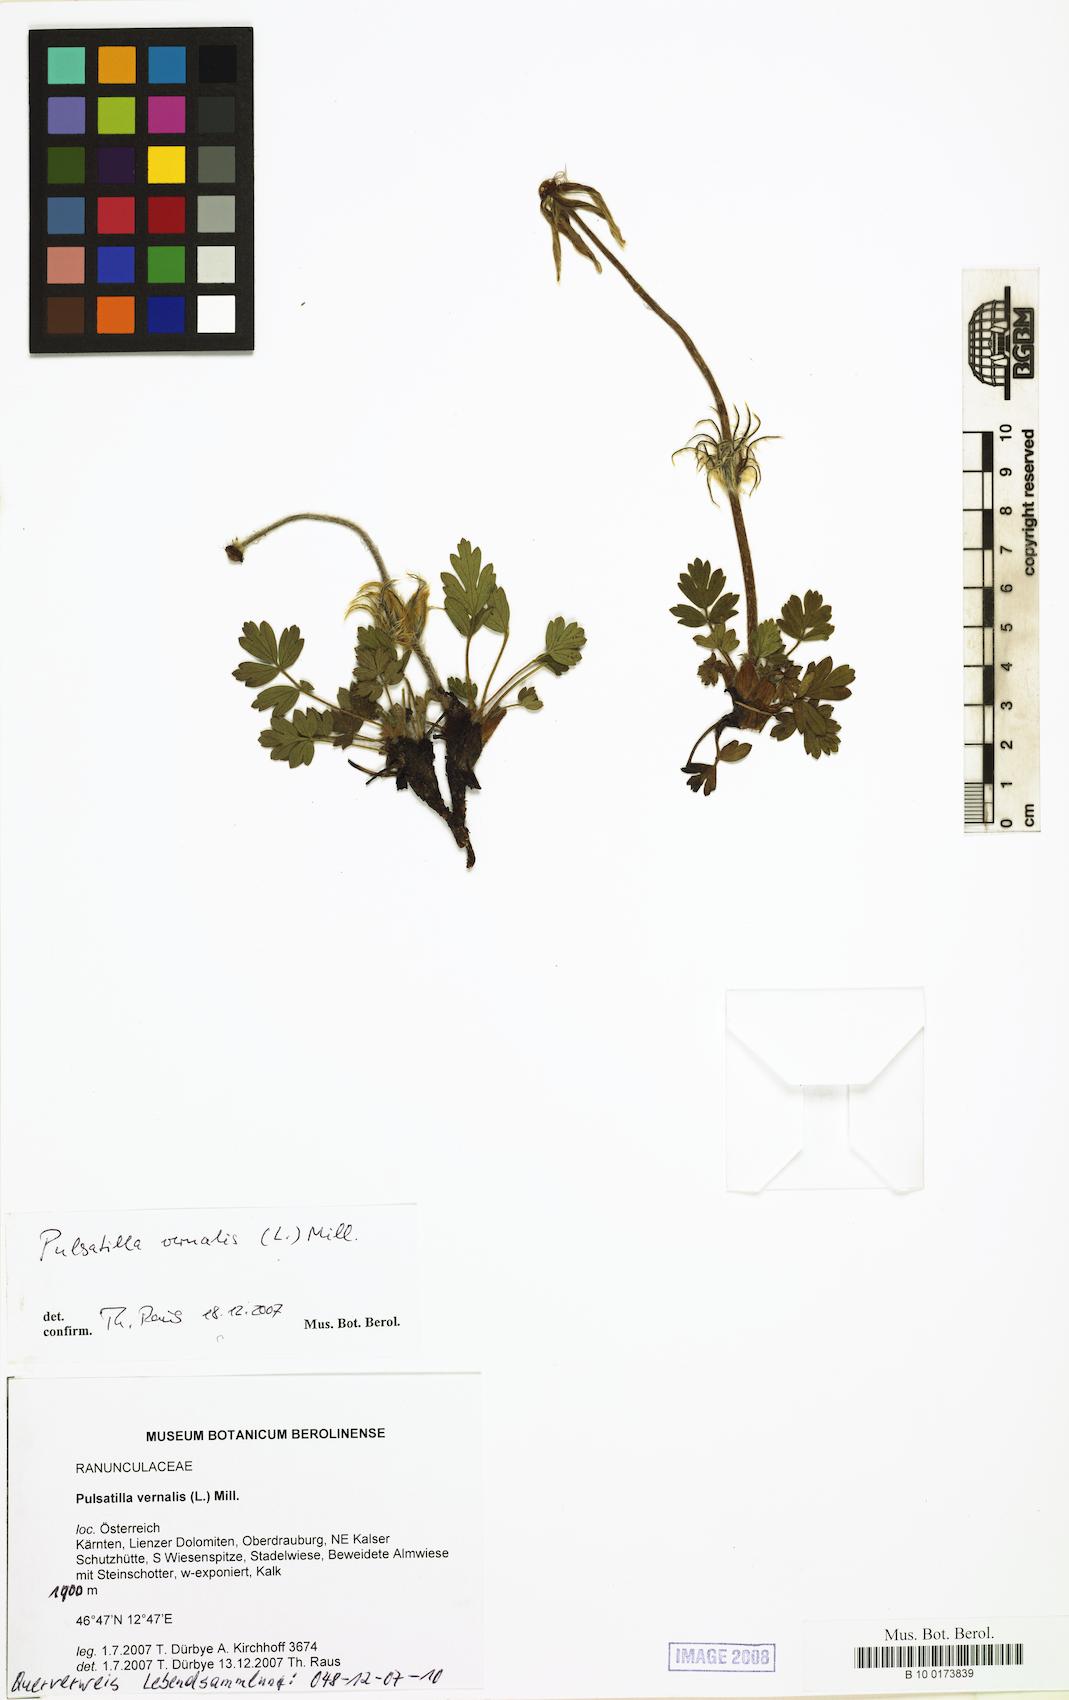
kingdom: Plantae
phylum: Tracheophyta
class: Magnoliopsida
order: Ranunculales
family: Ranunculaceae
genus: Pulsatilla
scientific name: Pulsatilla vernalis
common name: Spring pasque flower
